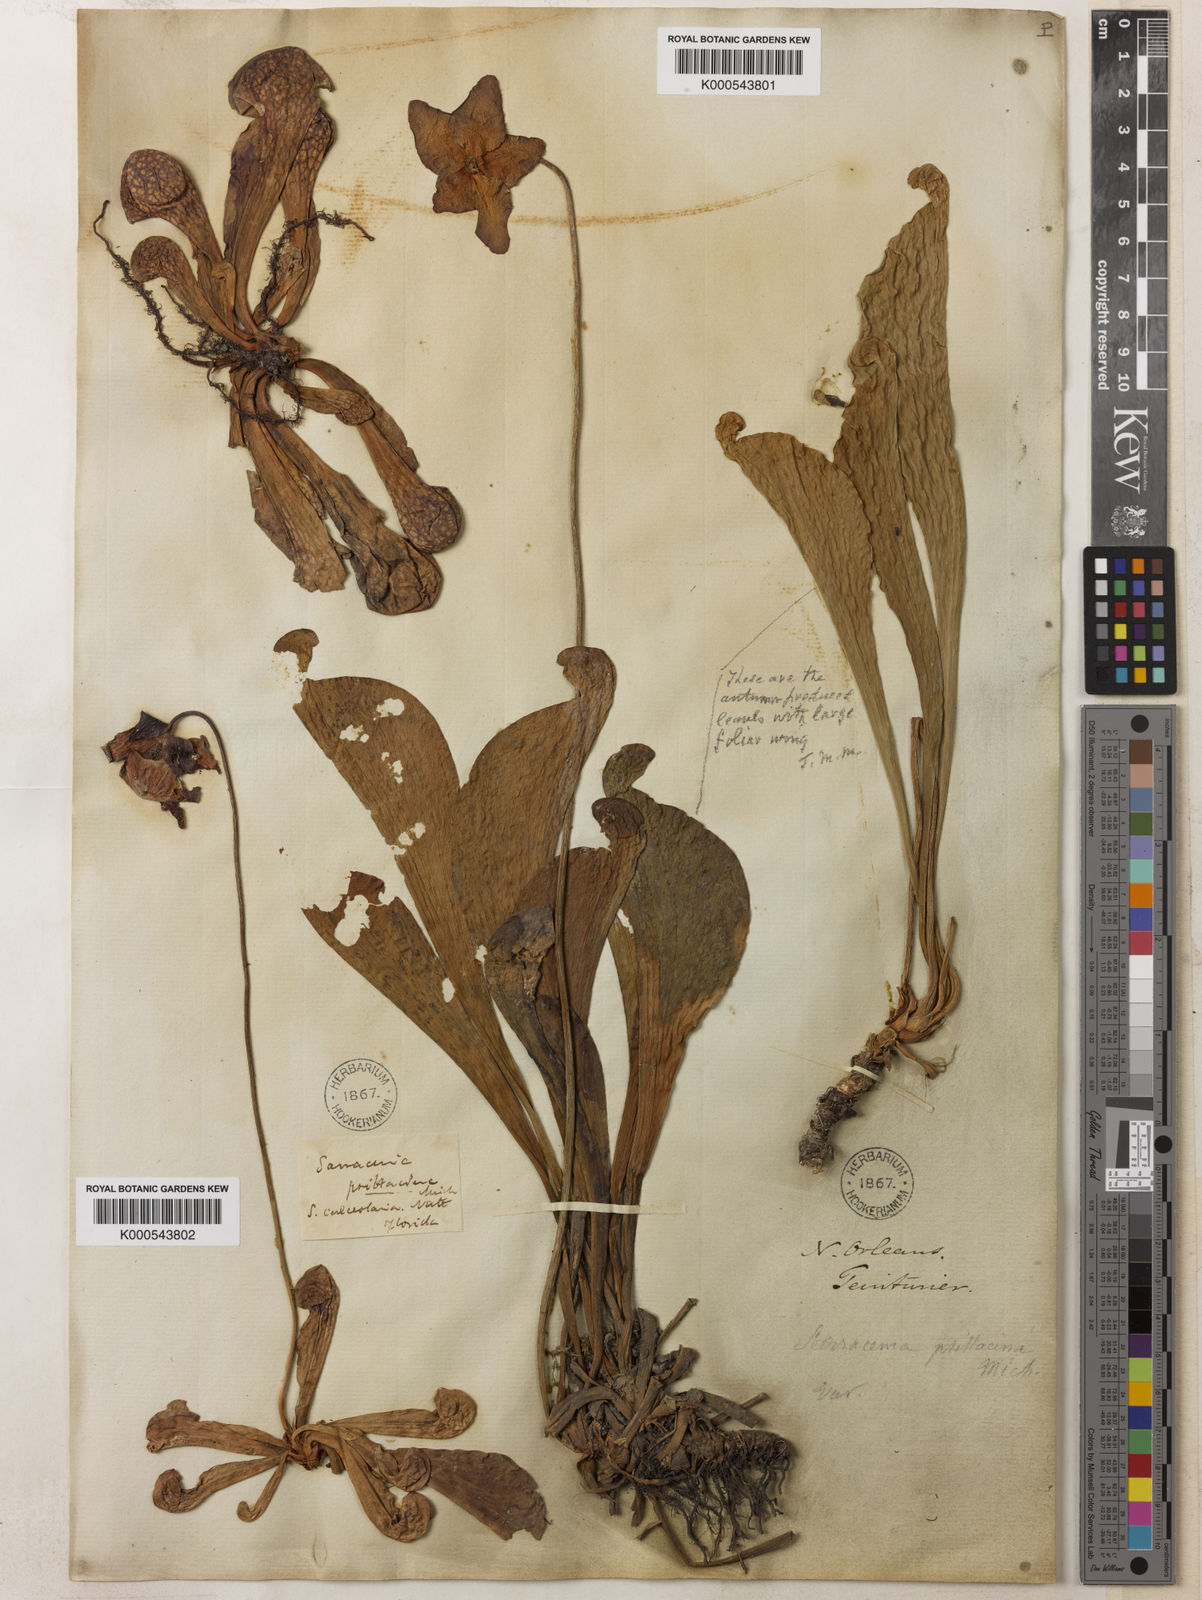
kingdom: Plantae
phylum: Tracheophyta
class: Magnoliopsida
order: Ericales
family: Sarraceniaceae
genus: Sarracenia
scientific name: Sarracenia psittacina
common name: Parrot pitcherplant
